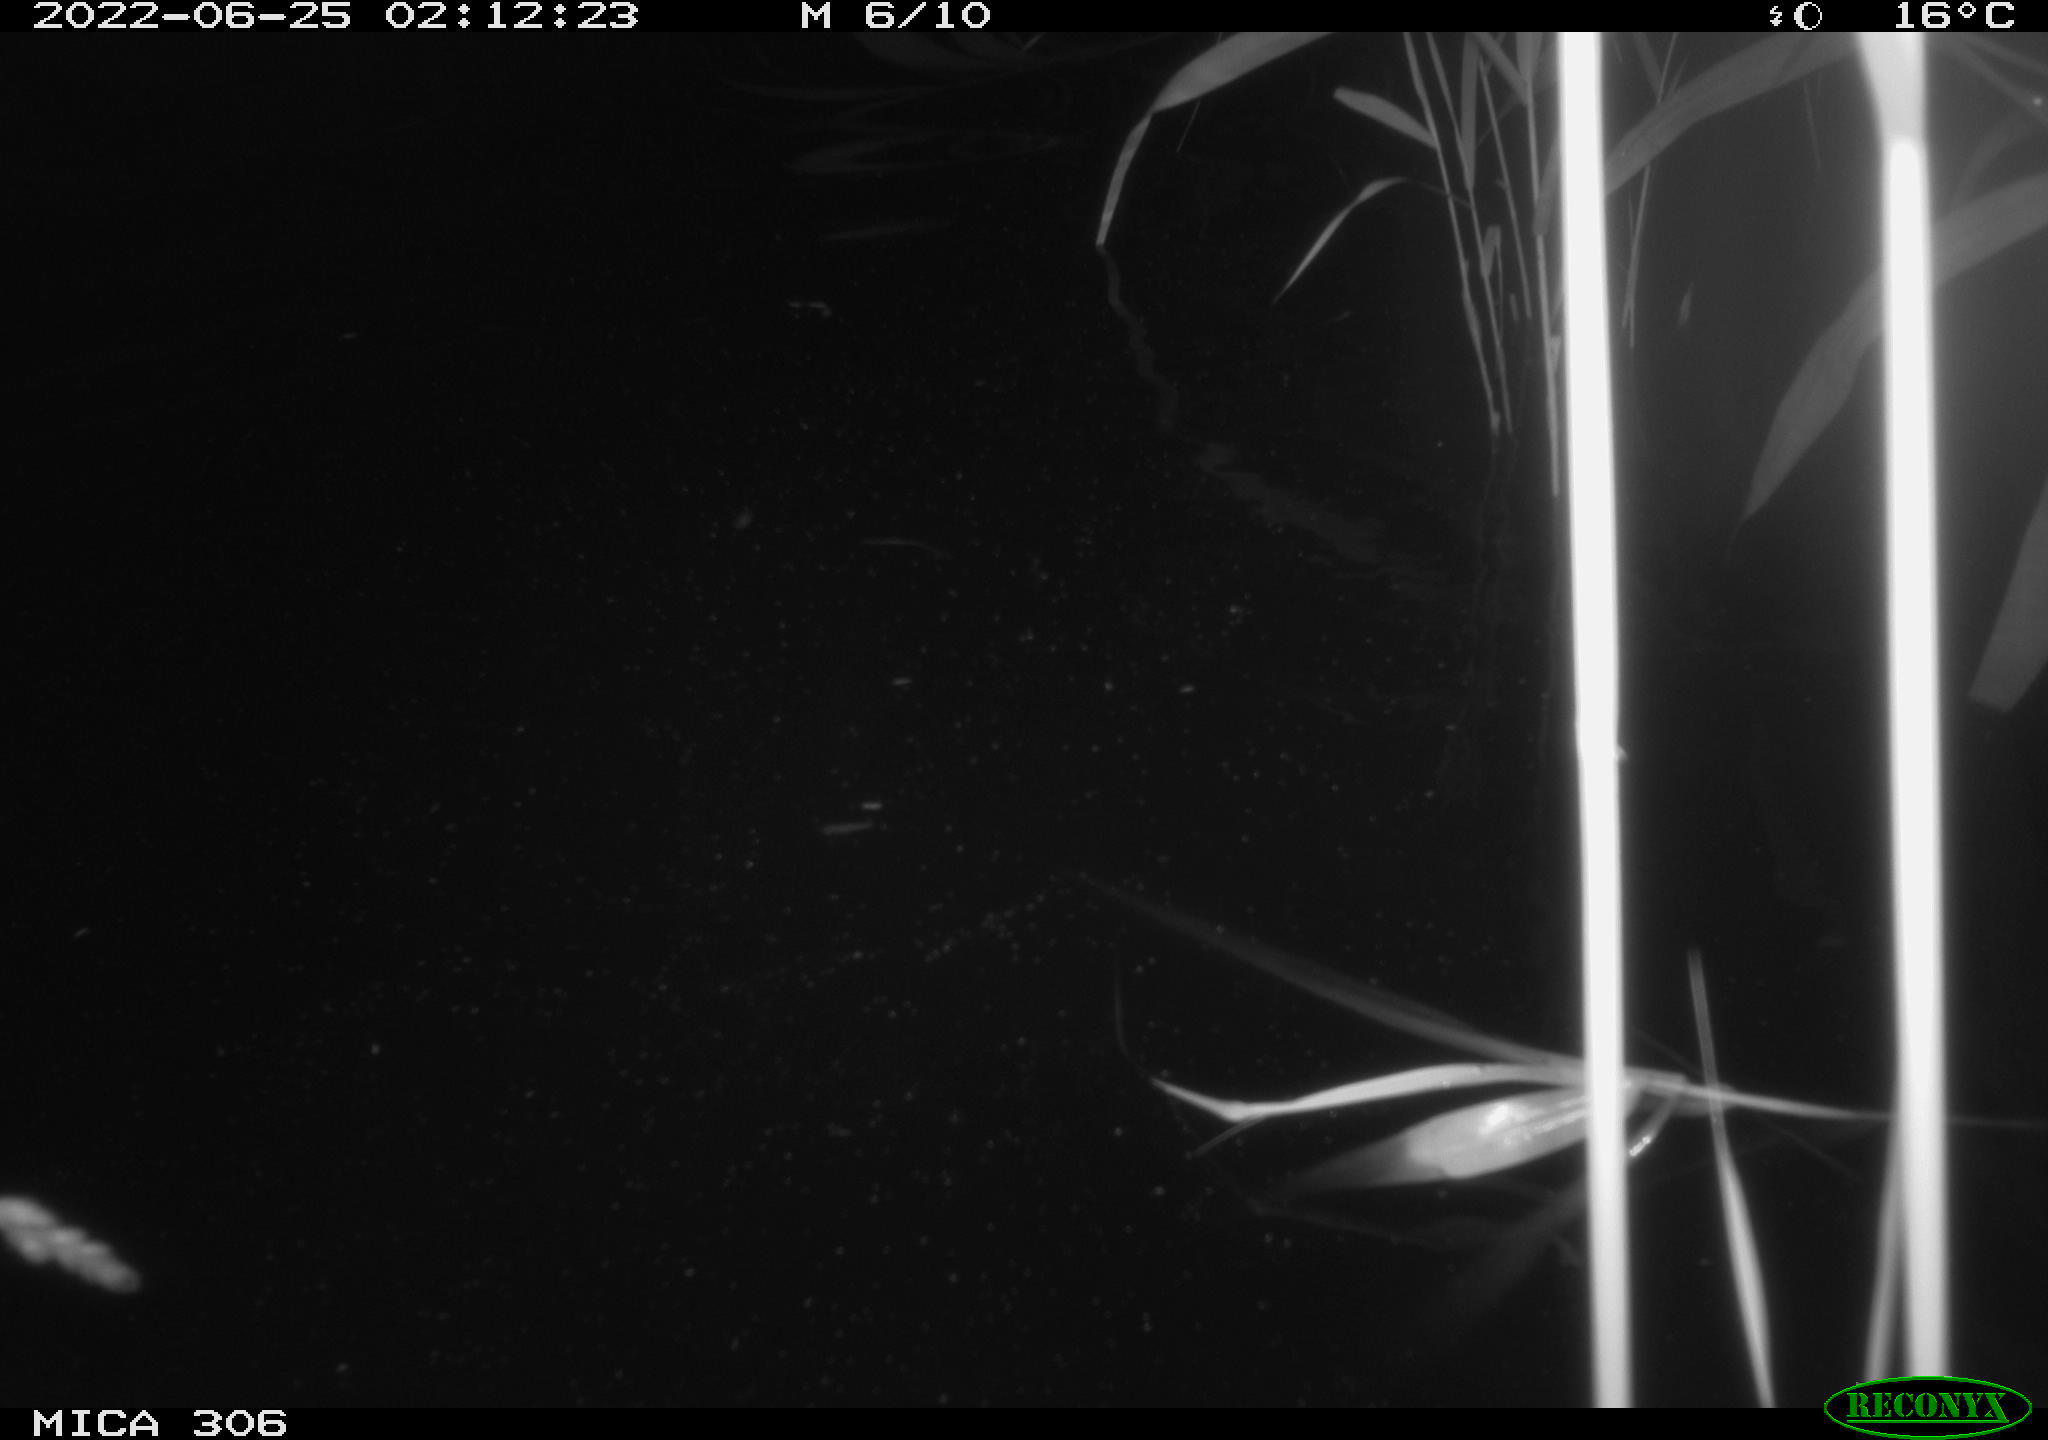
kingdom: Animalia
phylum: Chordata
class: Mammalia
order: Rodentia
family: Cricetidae
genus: Ondatra
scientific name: Ondatra zibethicus
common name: Muskrat
